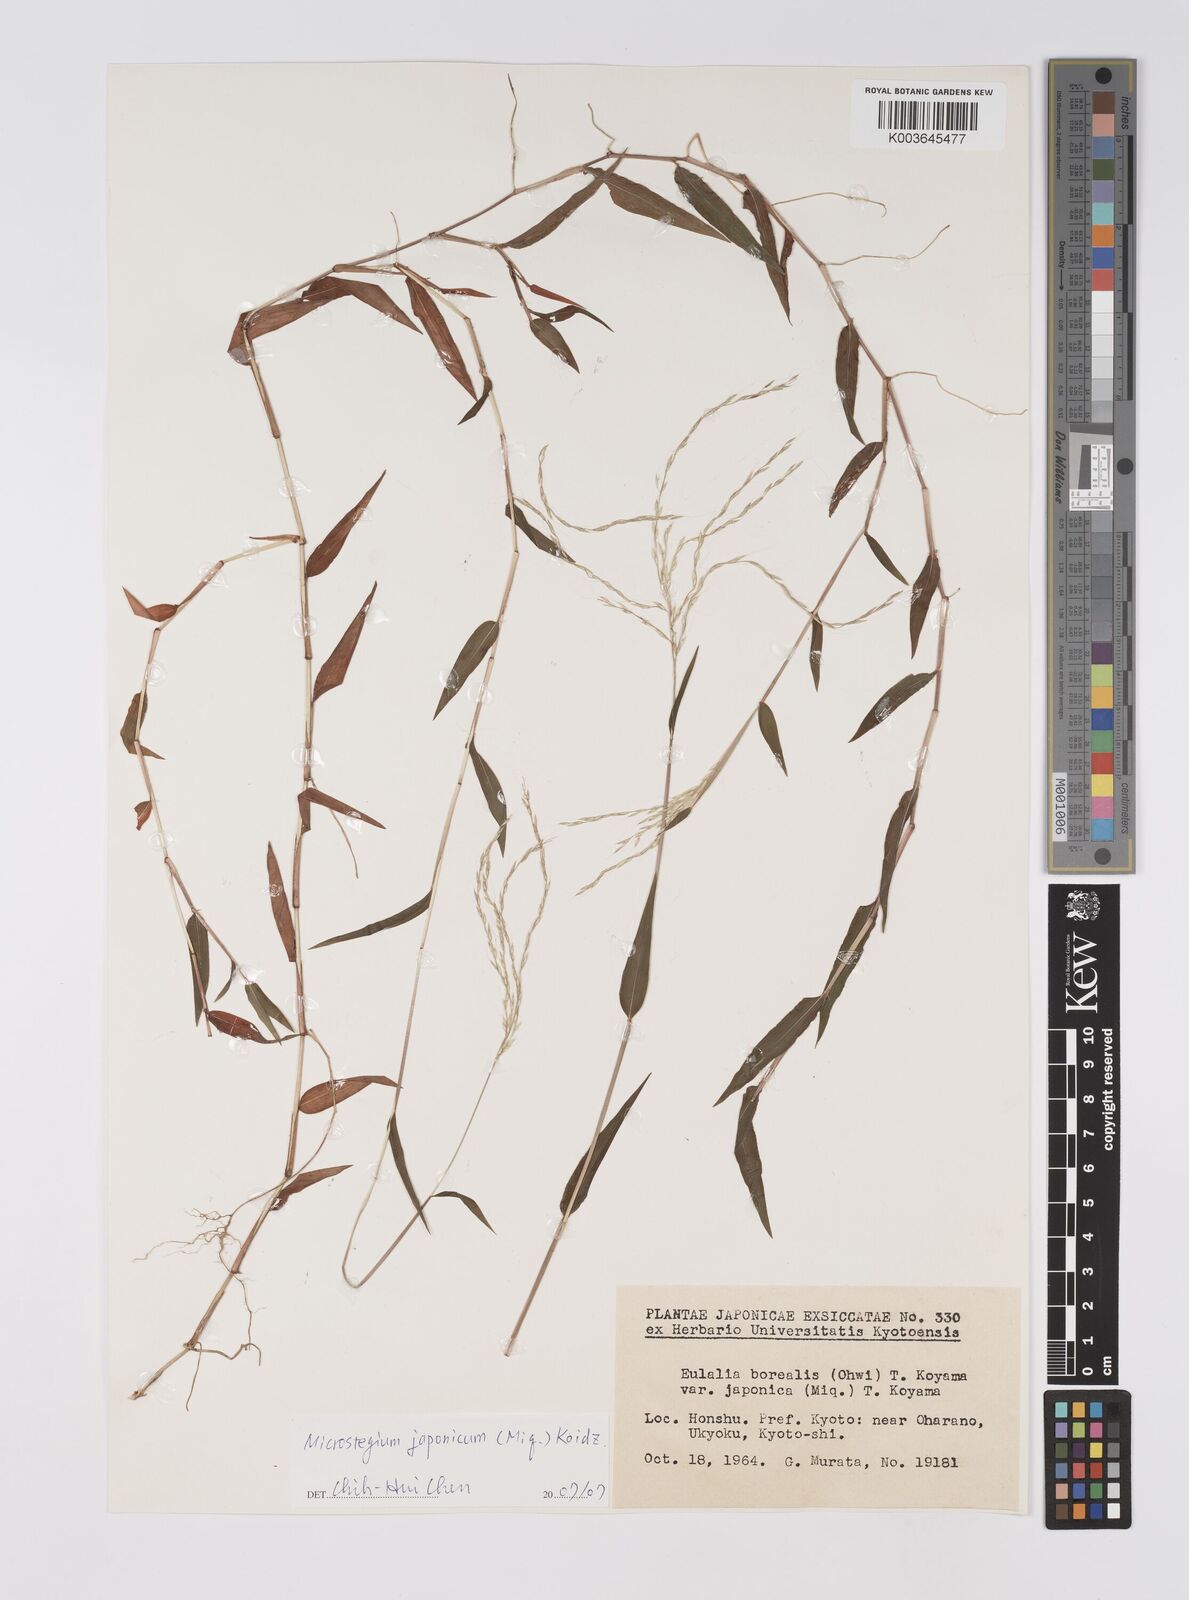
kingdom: Plantae
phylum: Tracheophyta
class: Liliopsida
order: Poales
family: Poaceae
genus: Microstegium
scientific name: Microstegium japonicum
